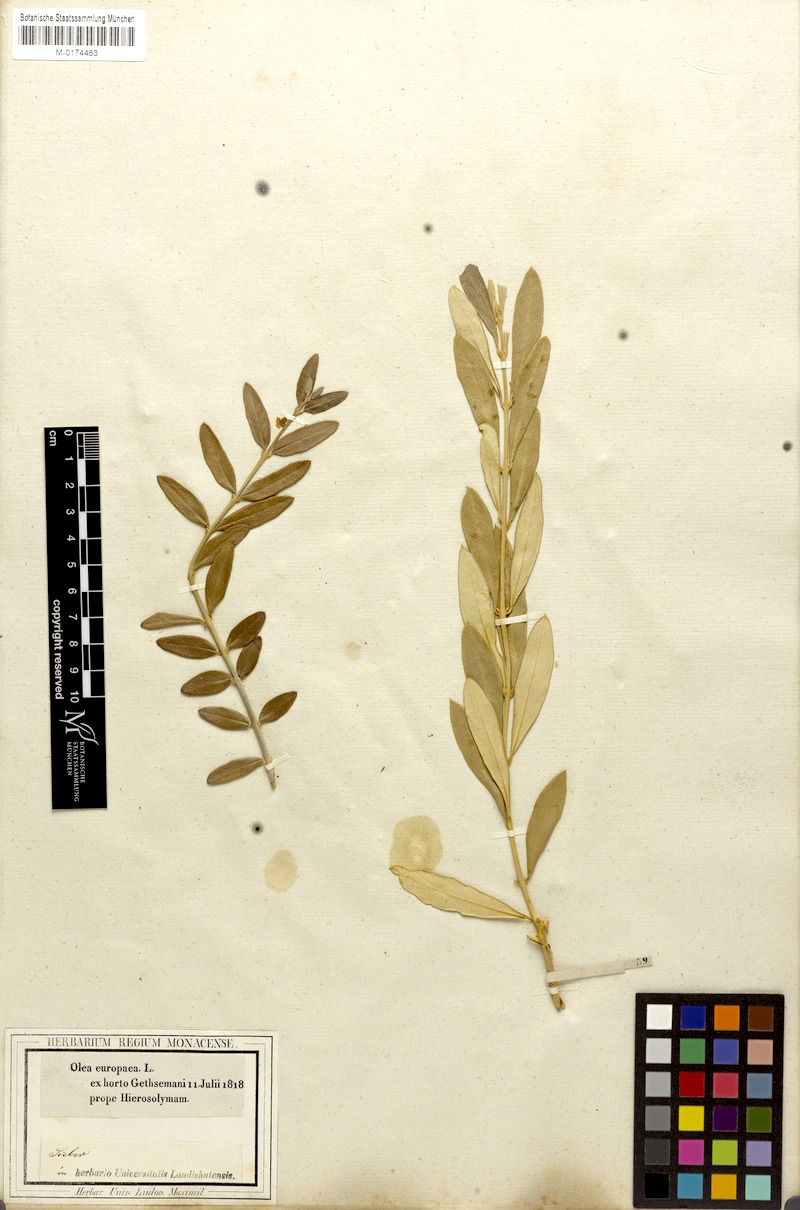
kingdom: Plantae
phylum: Tracheophyta
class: Magnoliopsida
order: Lamiales
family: Oleaceae
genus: Olea
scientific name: Olea europaea
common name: Olive
